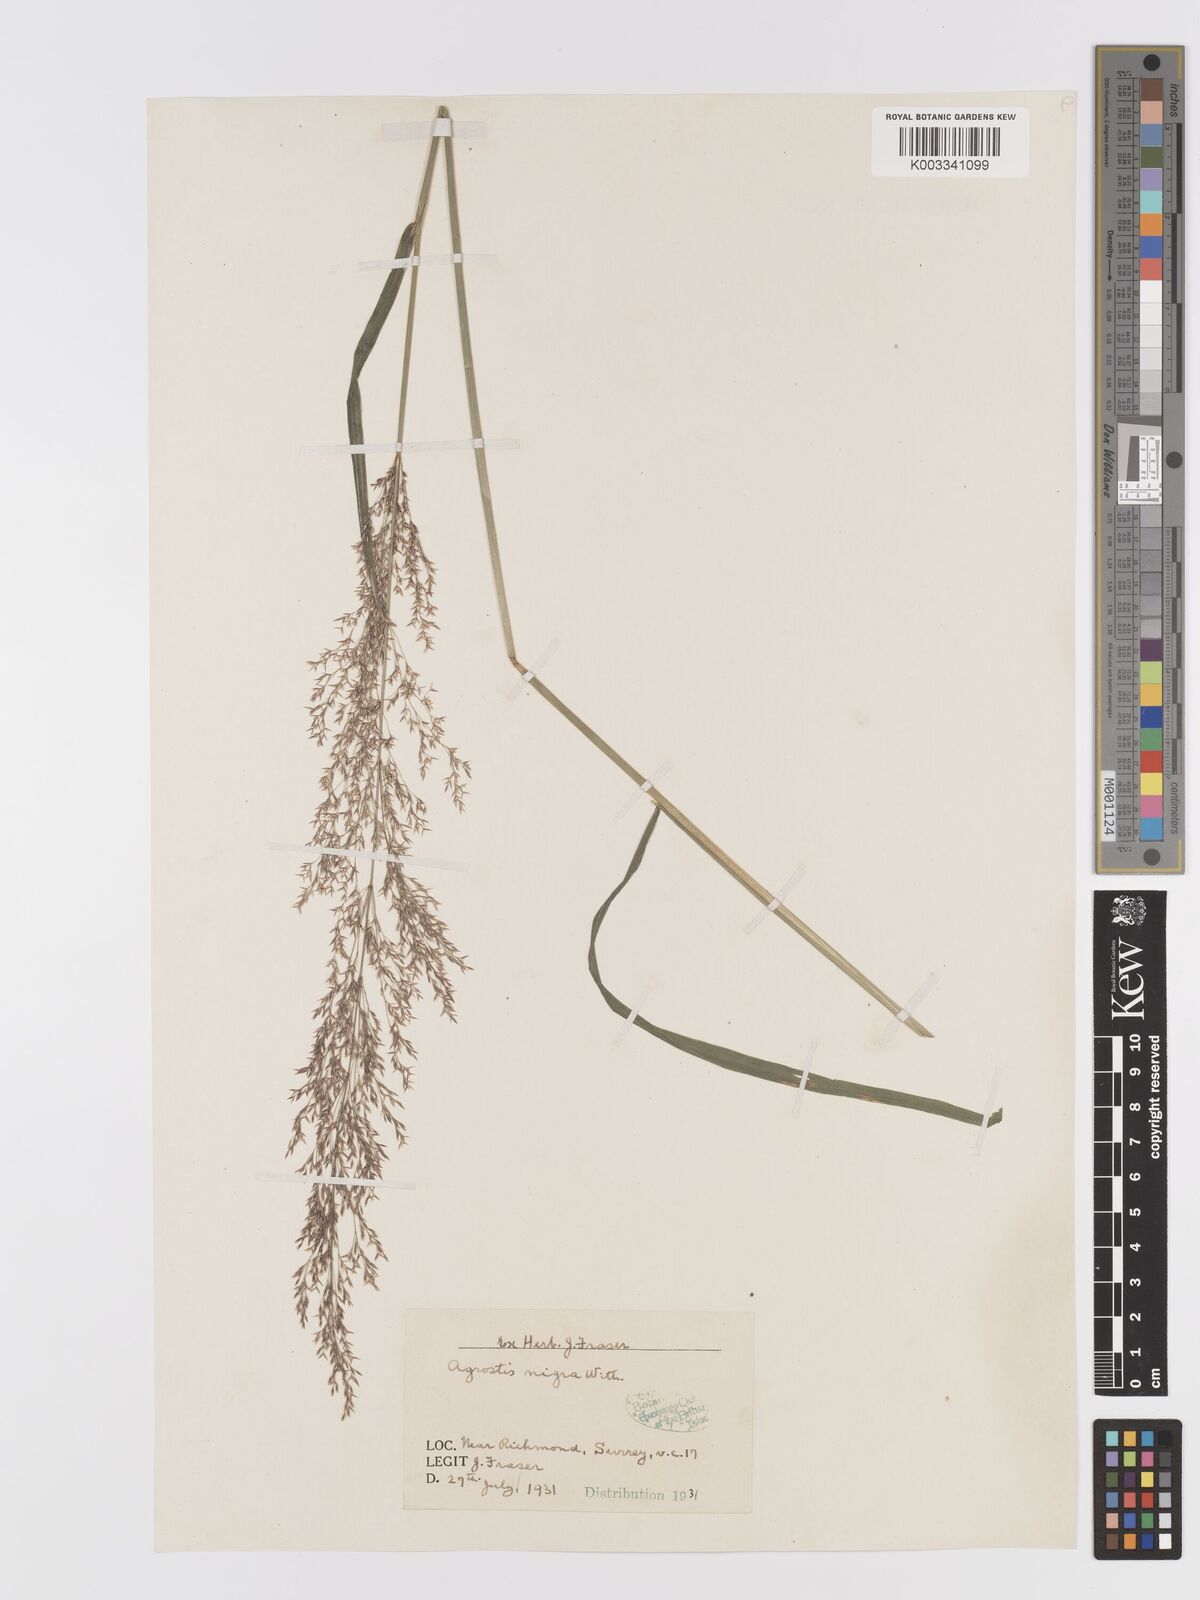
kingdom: Plantae
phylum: Tracheophyta
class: Liliopsida
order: Poales
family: Poaceae
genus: Agrostis
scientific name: Agrostis gigantea
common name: Black bent
